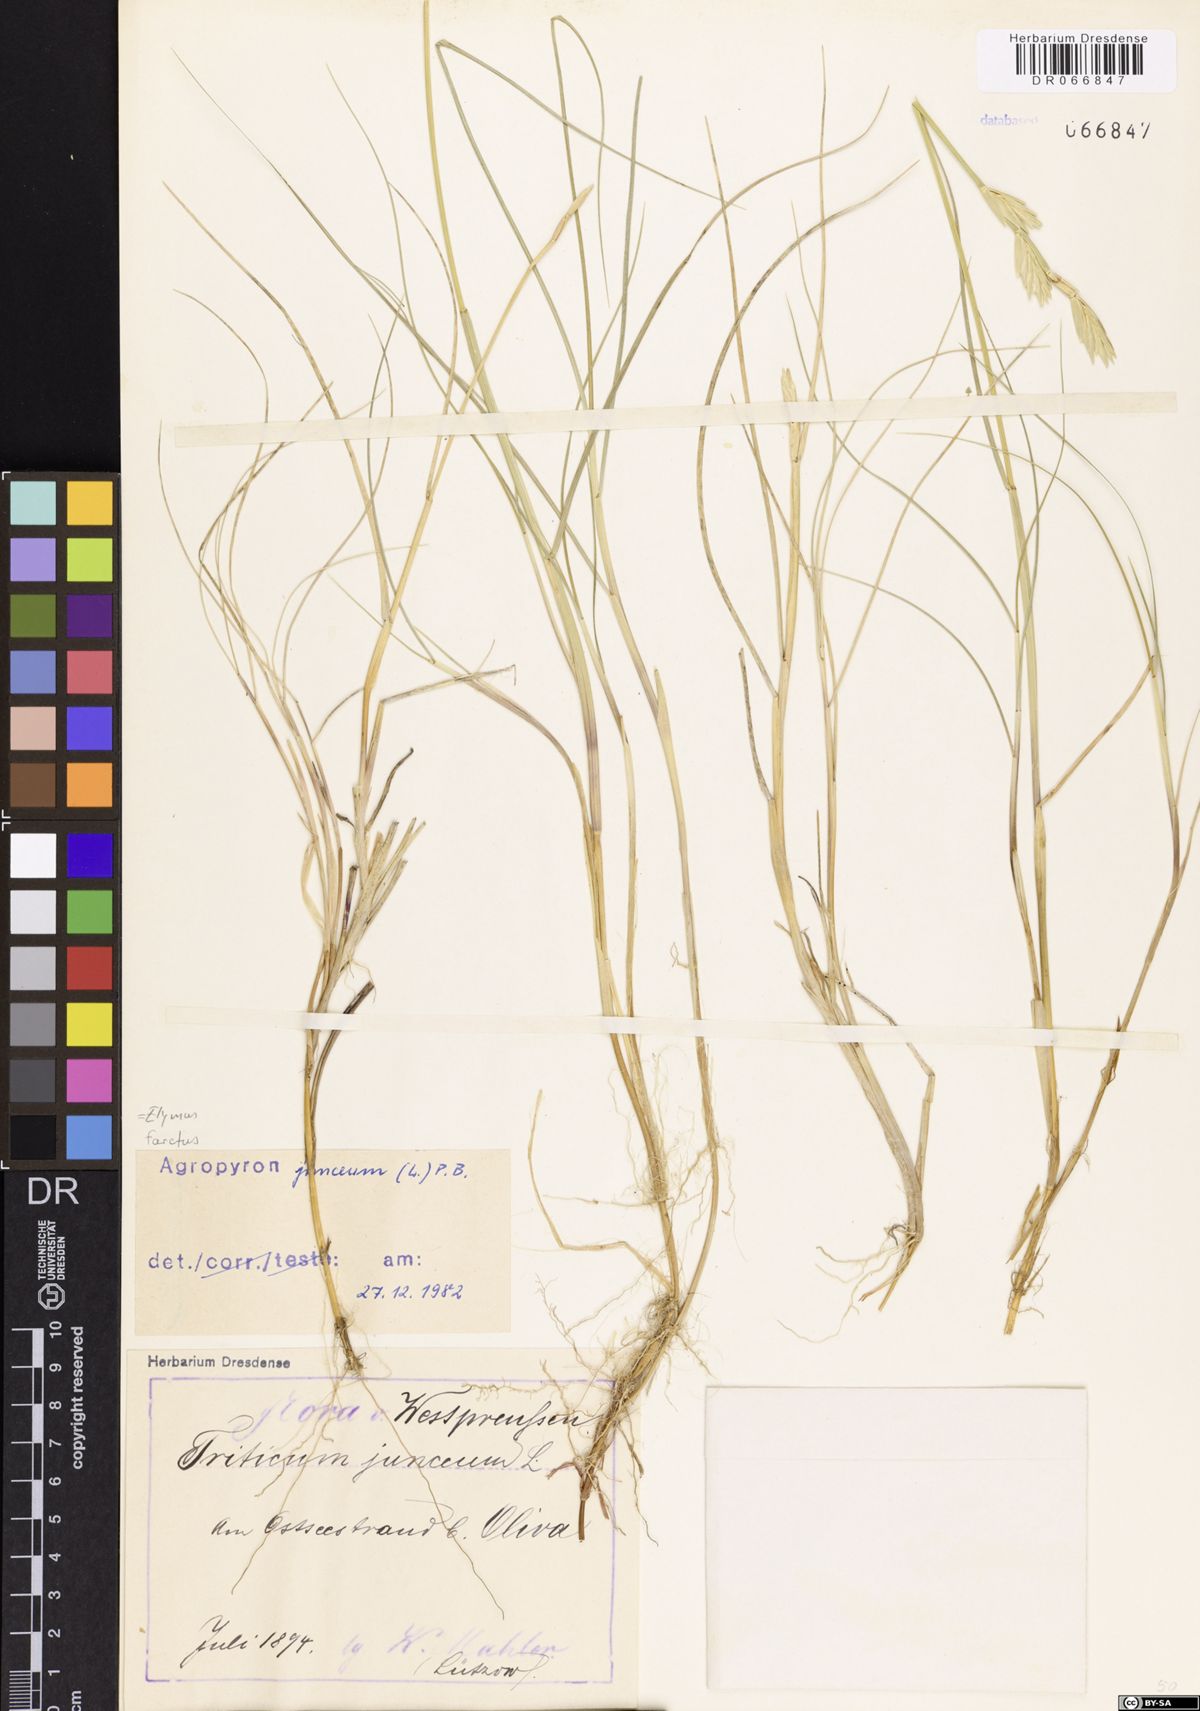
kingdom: Plantae
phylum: Tracheophyta
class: Liliopsida
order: Poales
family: Poaceae
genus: Thinopyrum
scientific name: Thinopyrum junceum
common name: Russian wheatgrass
